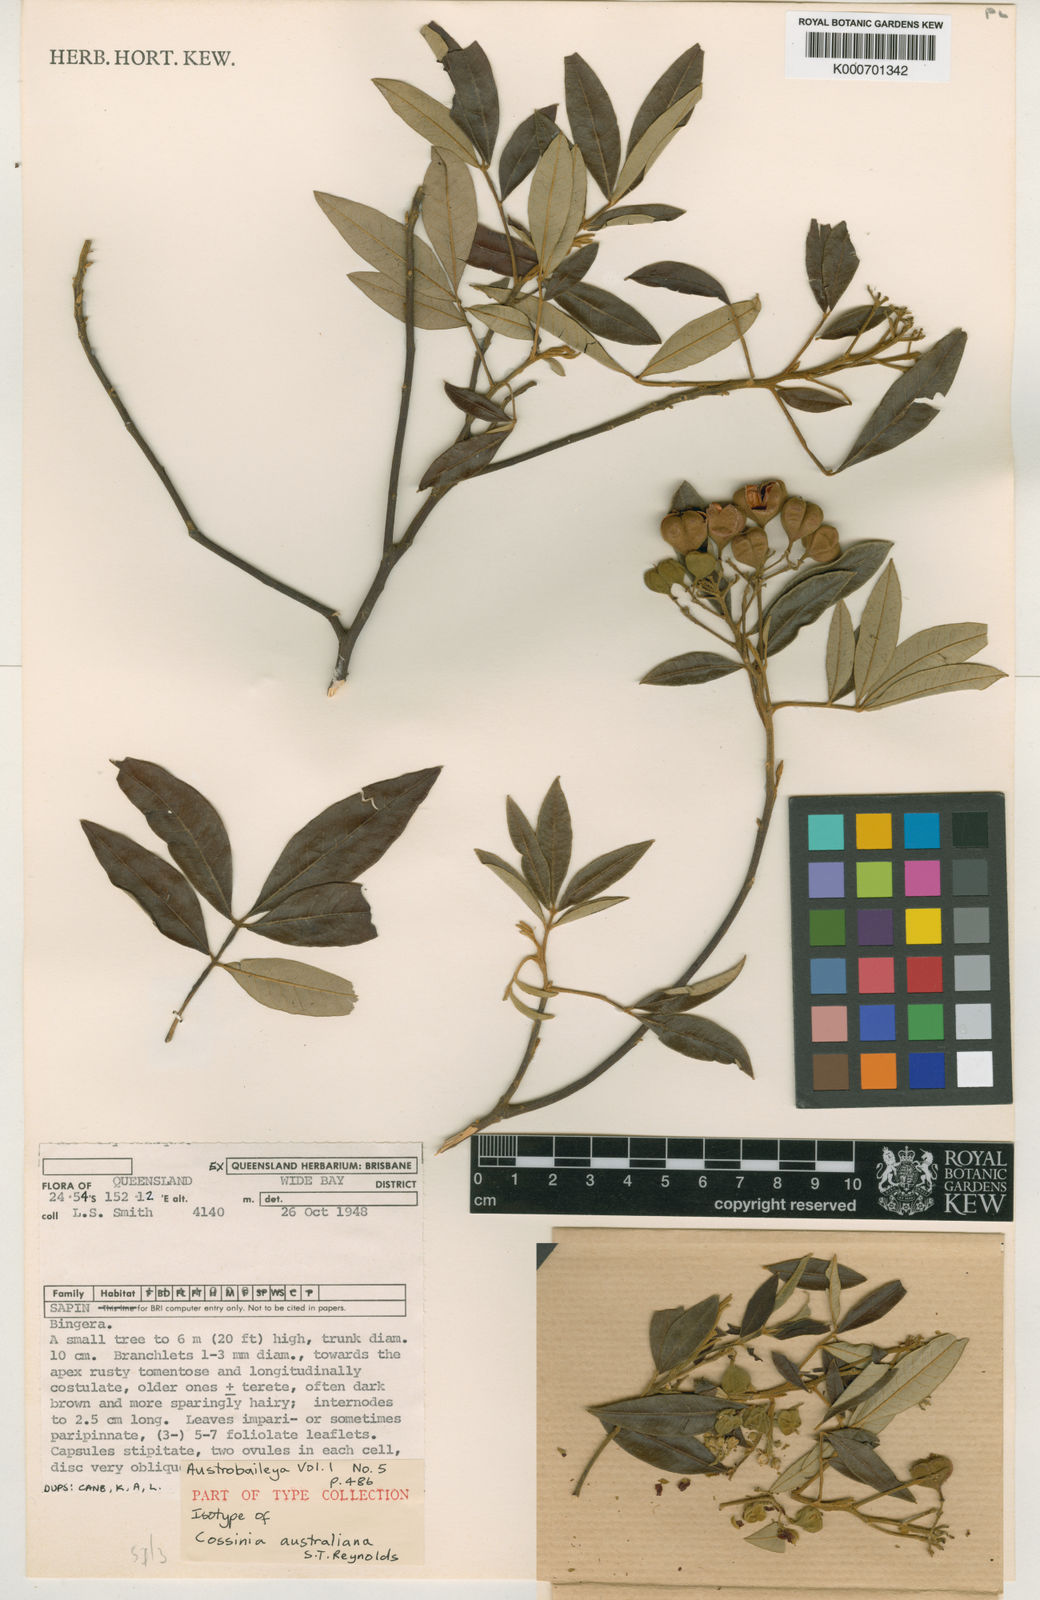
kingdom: Plantae
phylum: Tracheophyta
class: Magnoliopsida
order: Sapindales
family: Sapindaceae
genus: Cossinia
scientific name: Cossinia australiana
